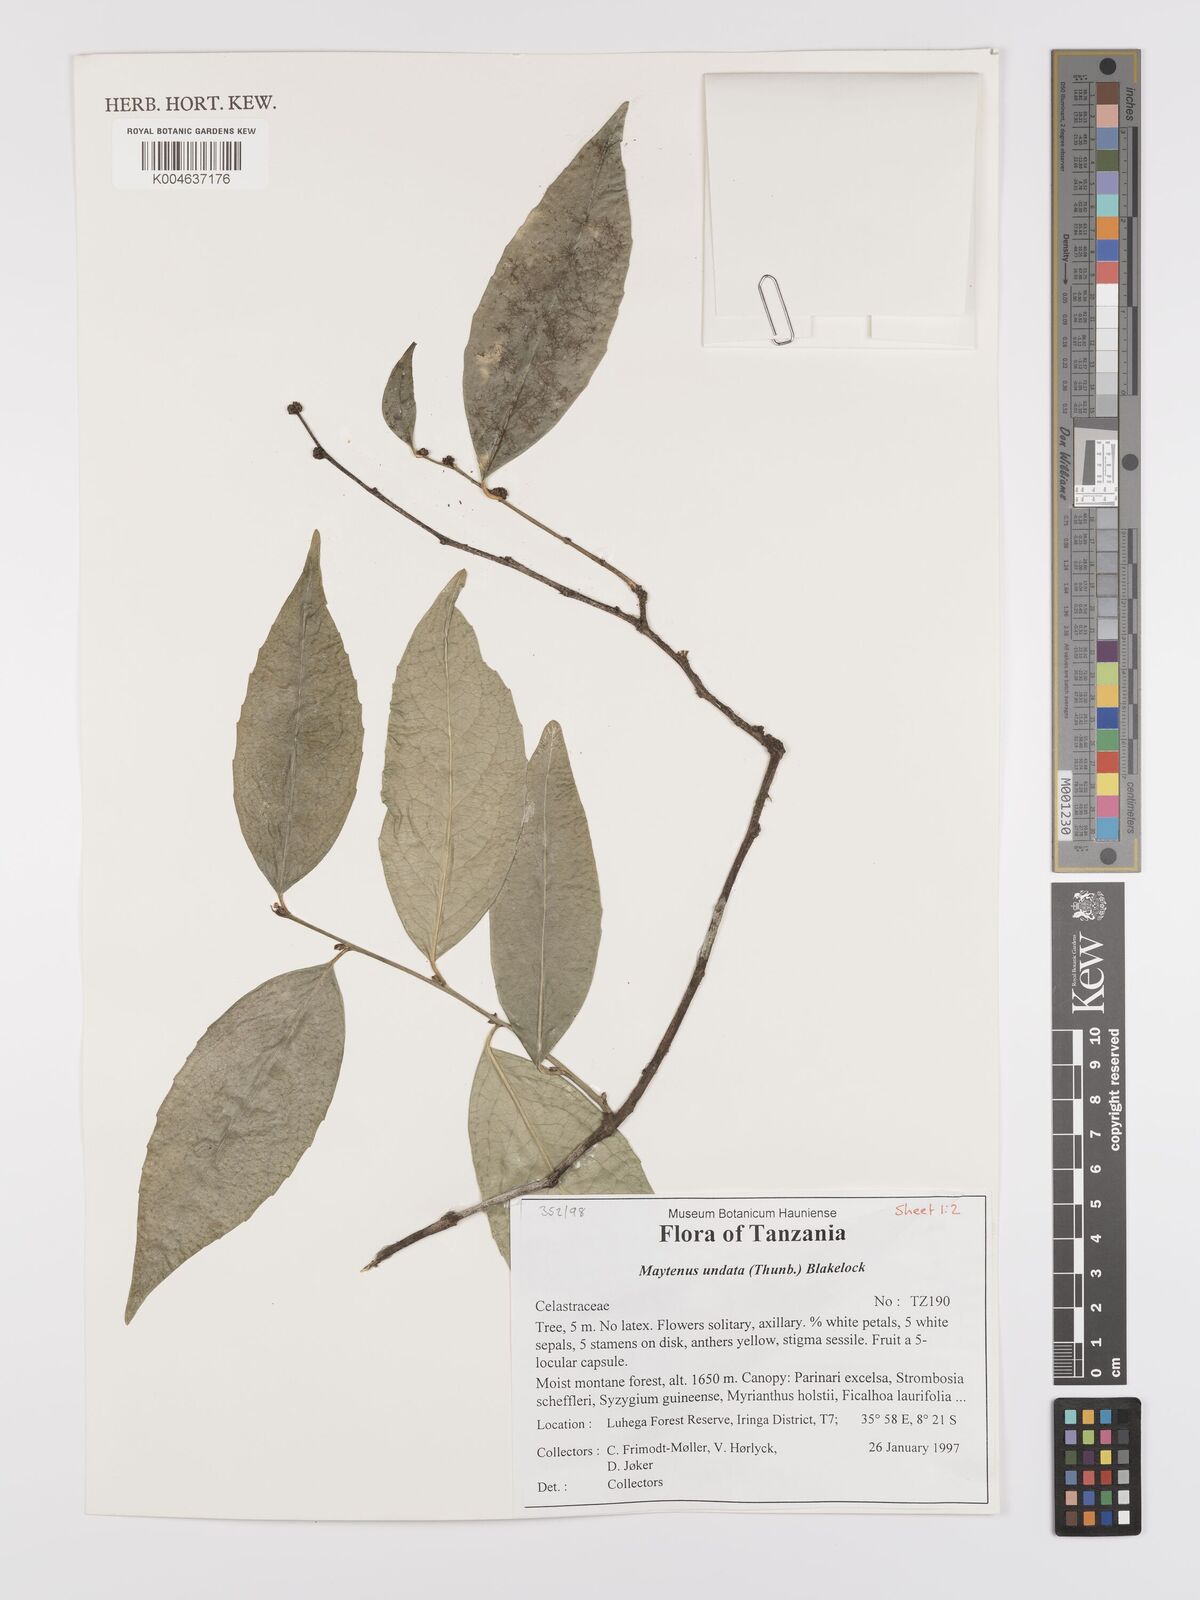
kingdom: Plantae
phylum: Tracheophyta
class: Magnoliopsida
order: Celastrales
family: Celastraceae
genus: Gymnosporia
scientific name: Gymnosporia undata
